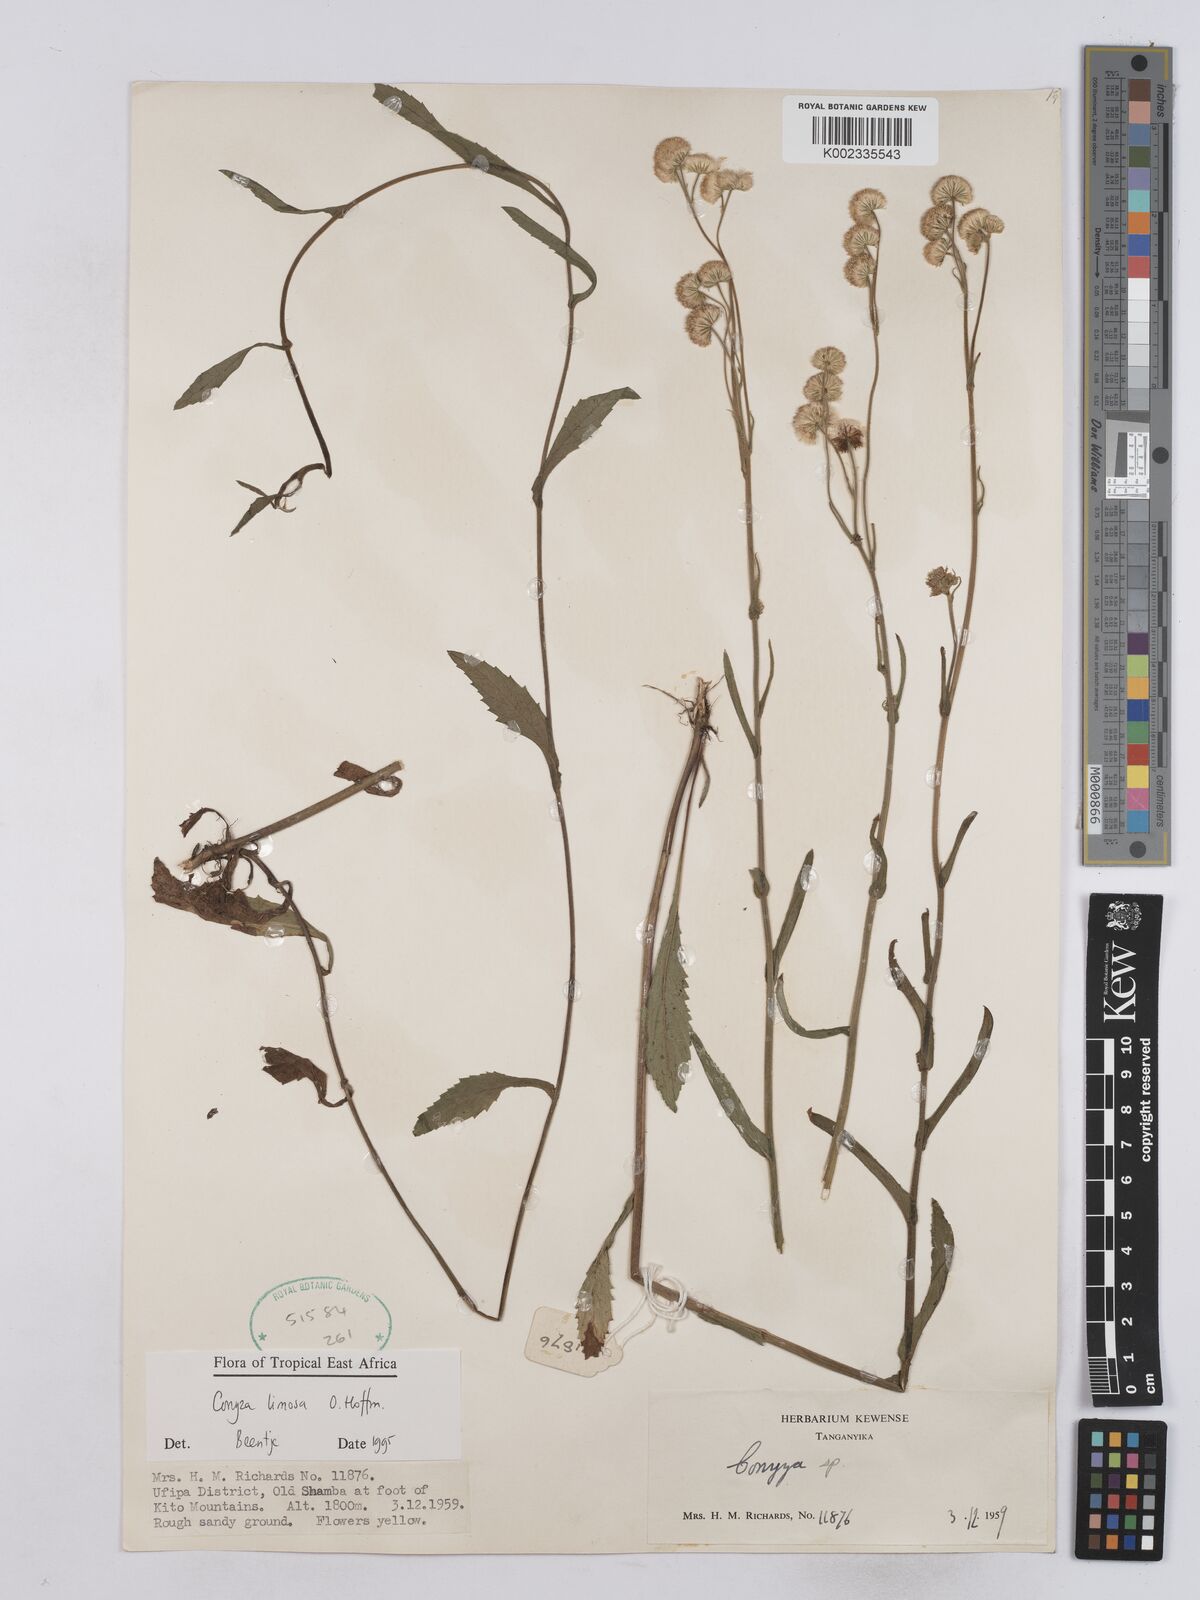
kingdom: Plantae
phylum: Tracheophyta
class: Magnoliopsida
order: Asterales
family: Asteraceae
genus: Conyza
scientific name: Conyza limosa
